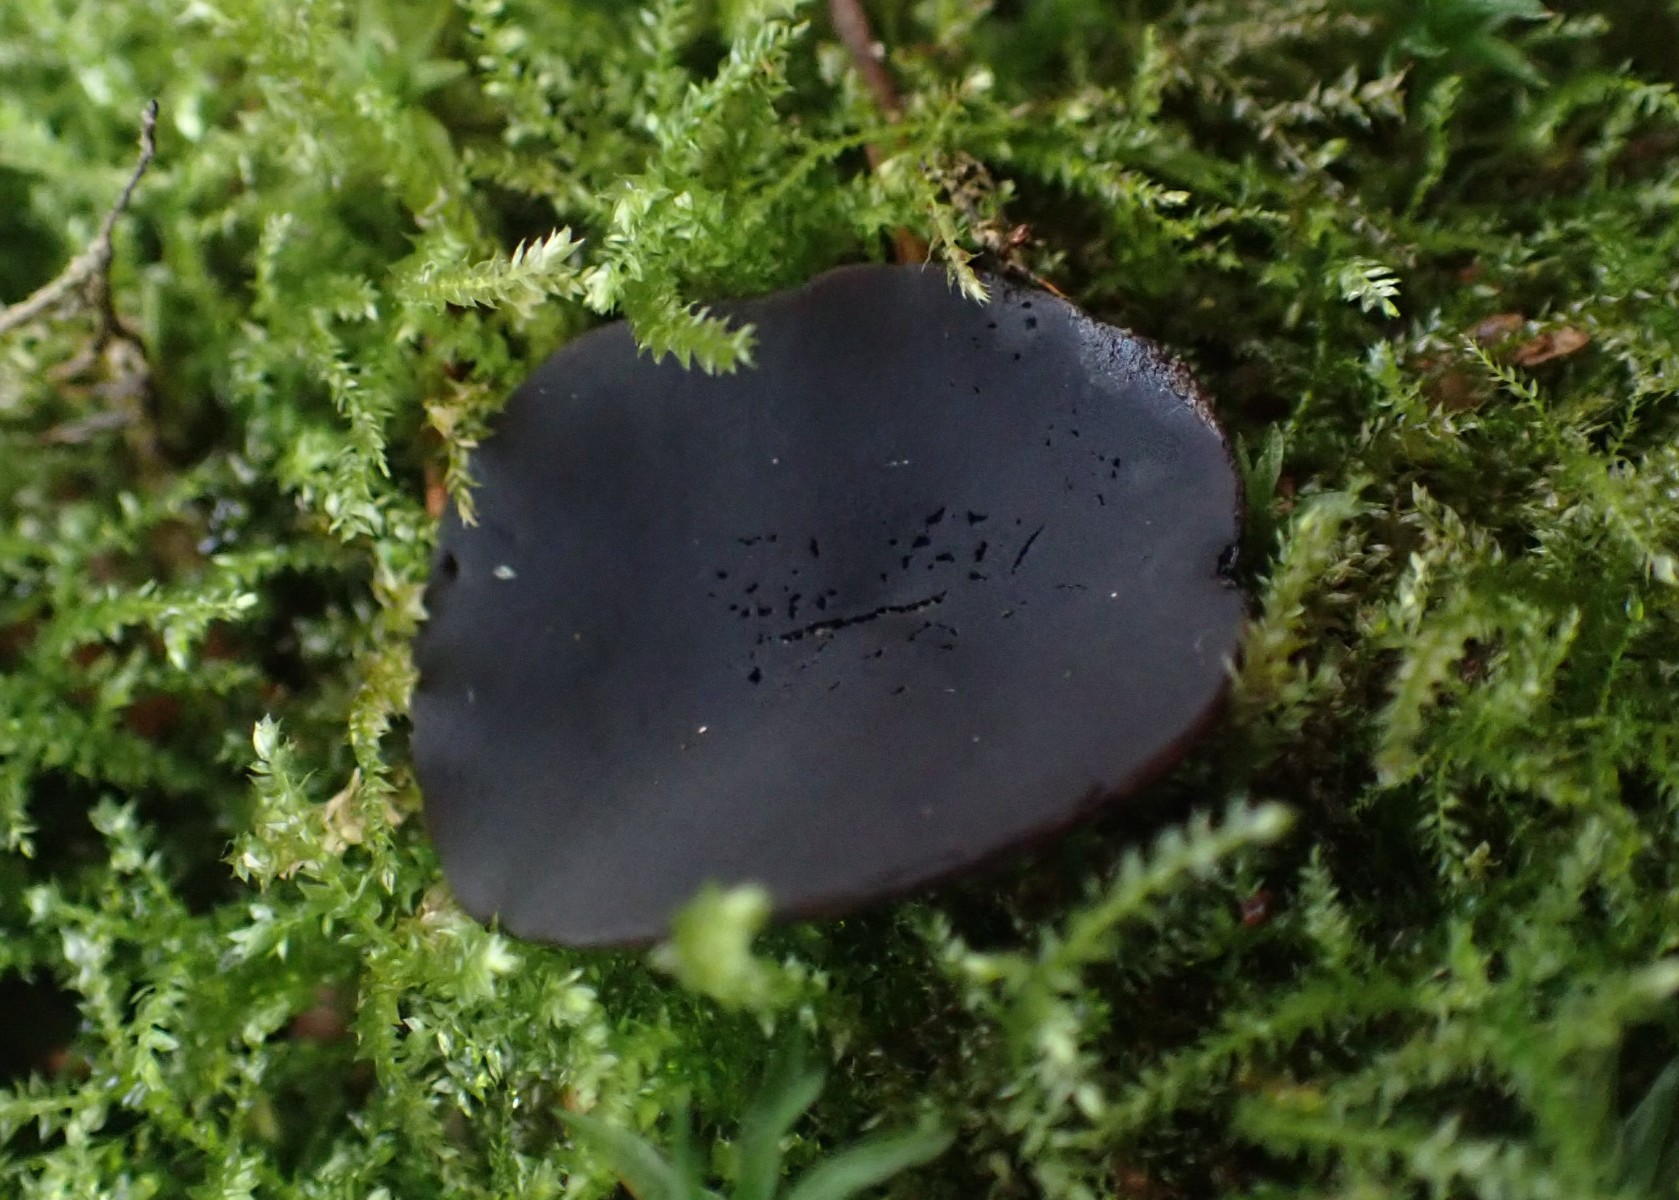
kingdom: Fungi
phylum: Ascomycota
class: Pezizomycetes
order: Pezizales
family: Pezizaceae
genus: Peziza
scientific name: Peziza saniosa
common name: blåmælket bægersvamp
